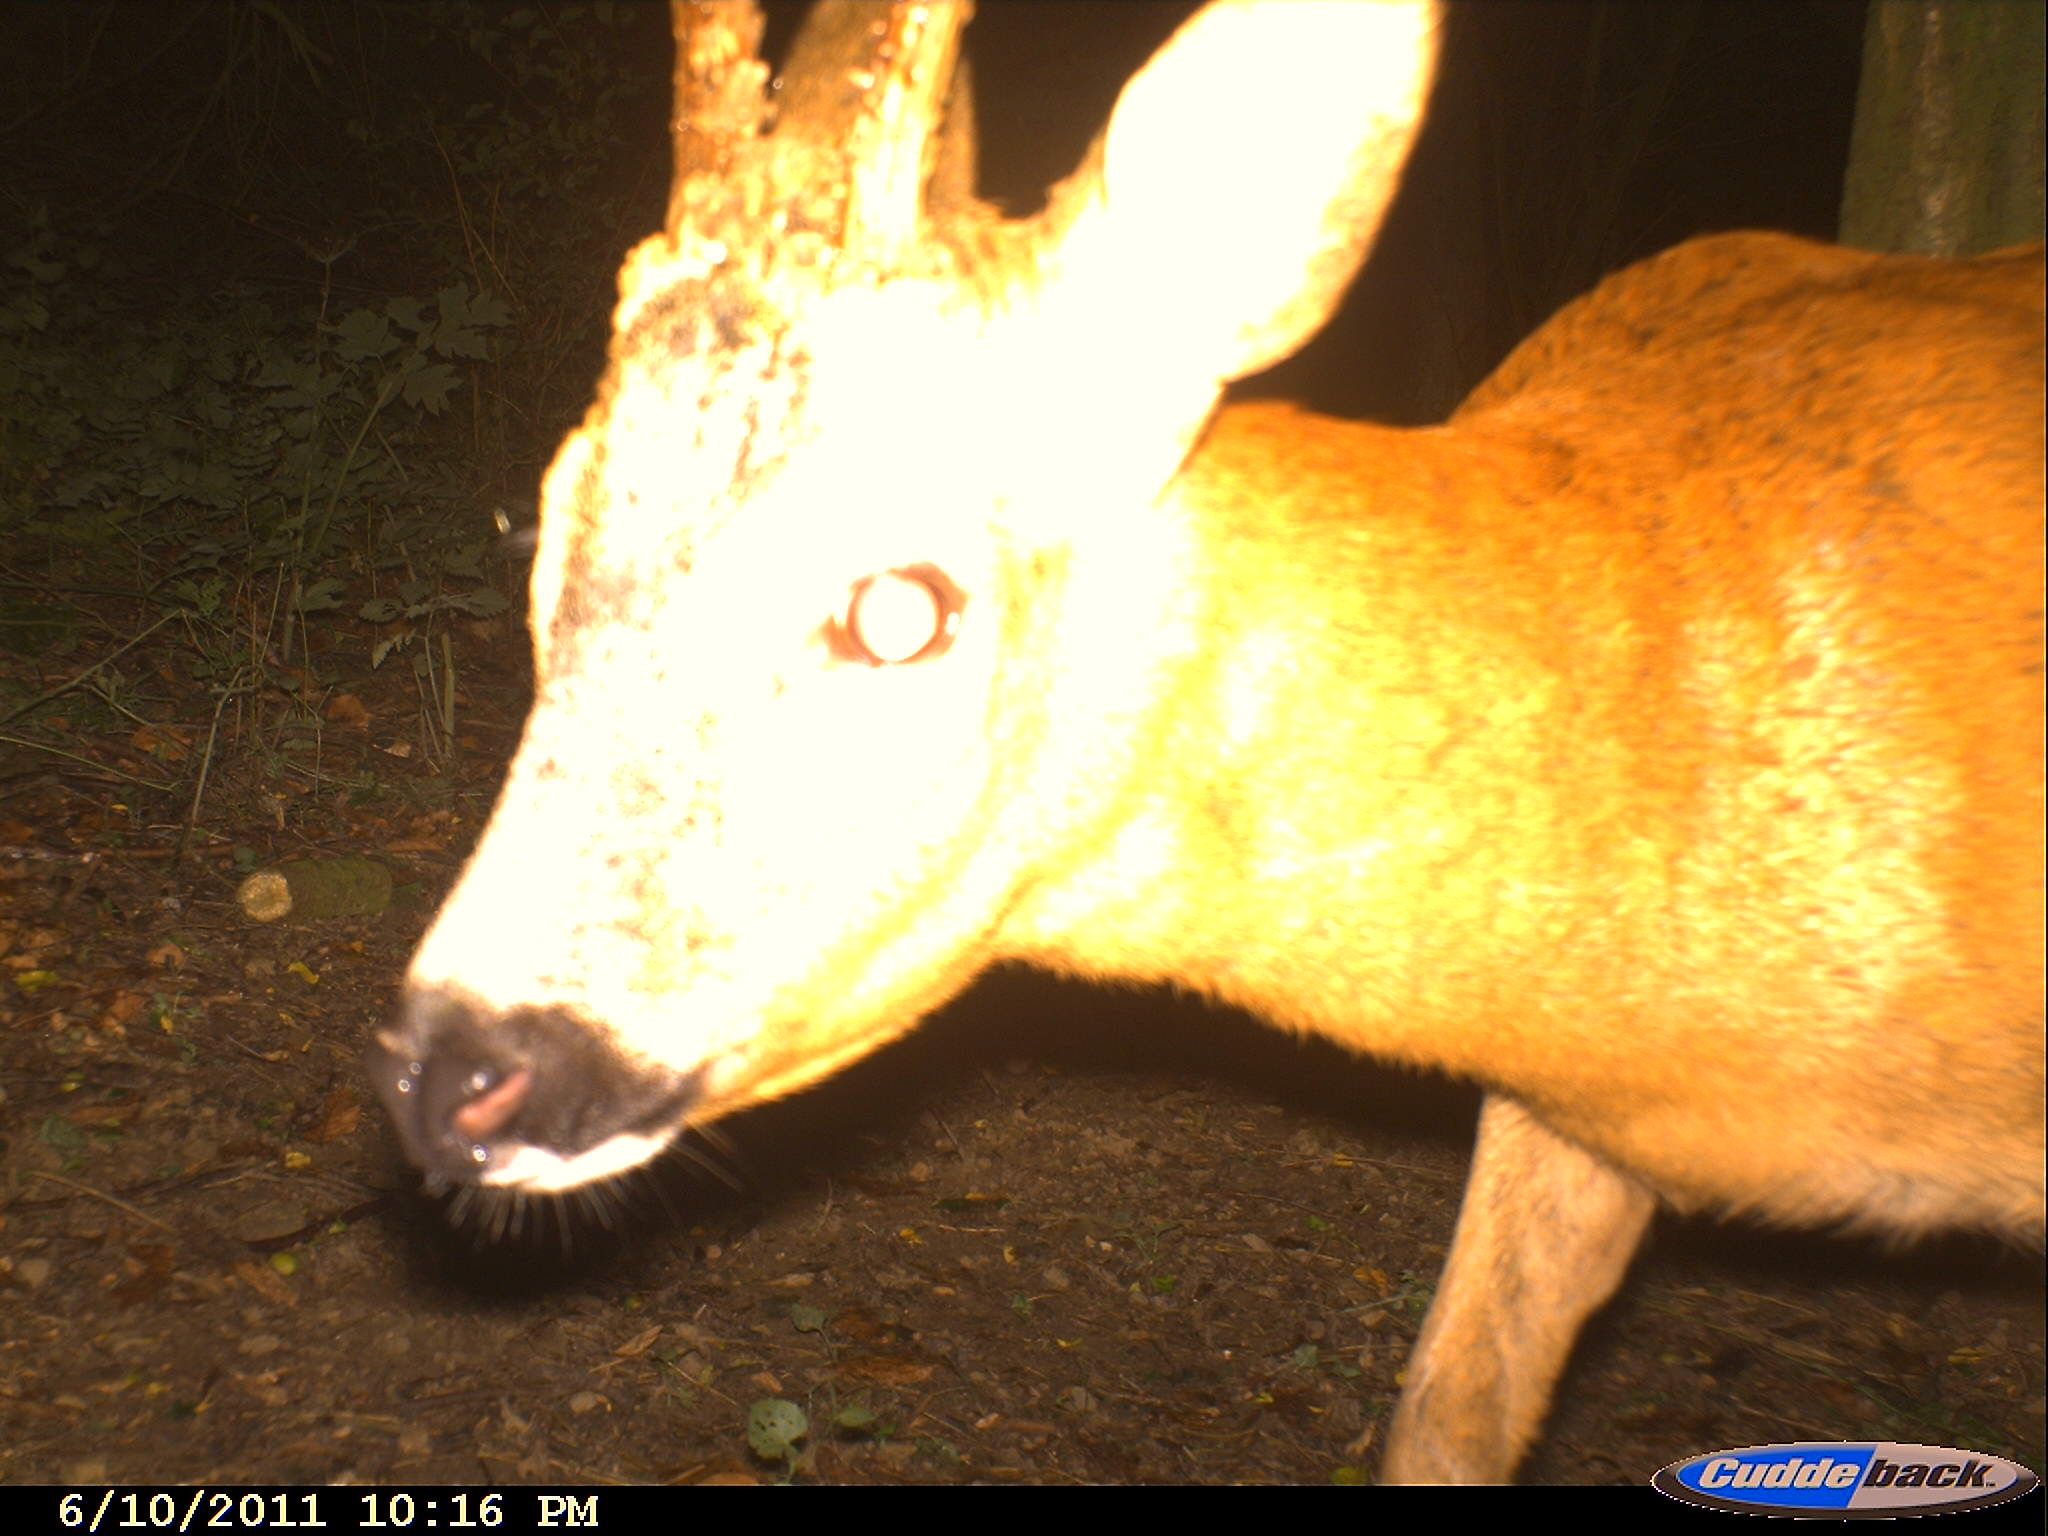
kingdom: Animalia
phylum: Chordata
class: Mammalia
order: Artiodactyla
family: Cervidae
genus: Capreolus
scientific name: Capreolus capreolus
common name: Western roe deer
